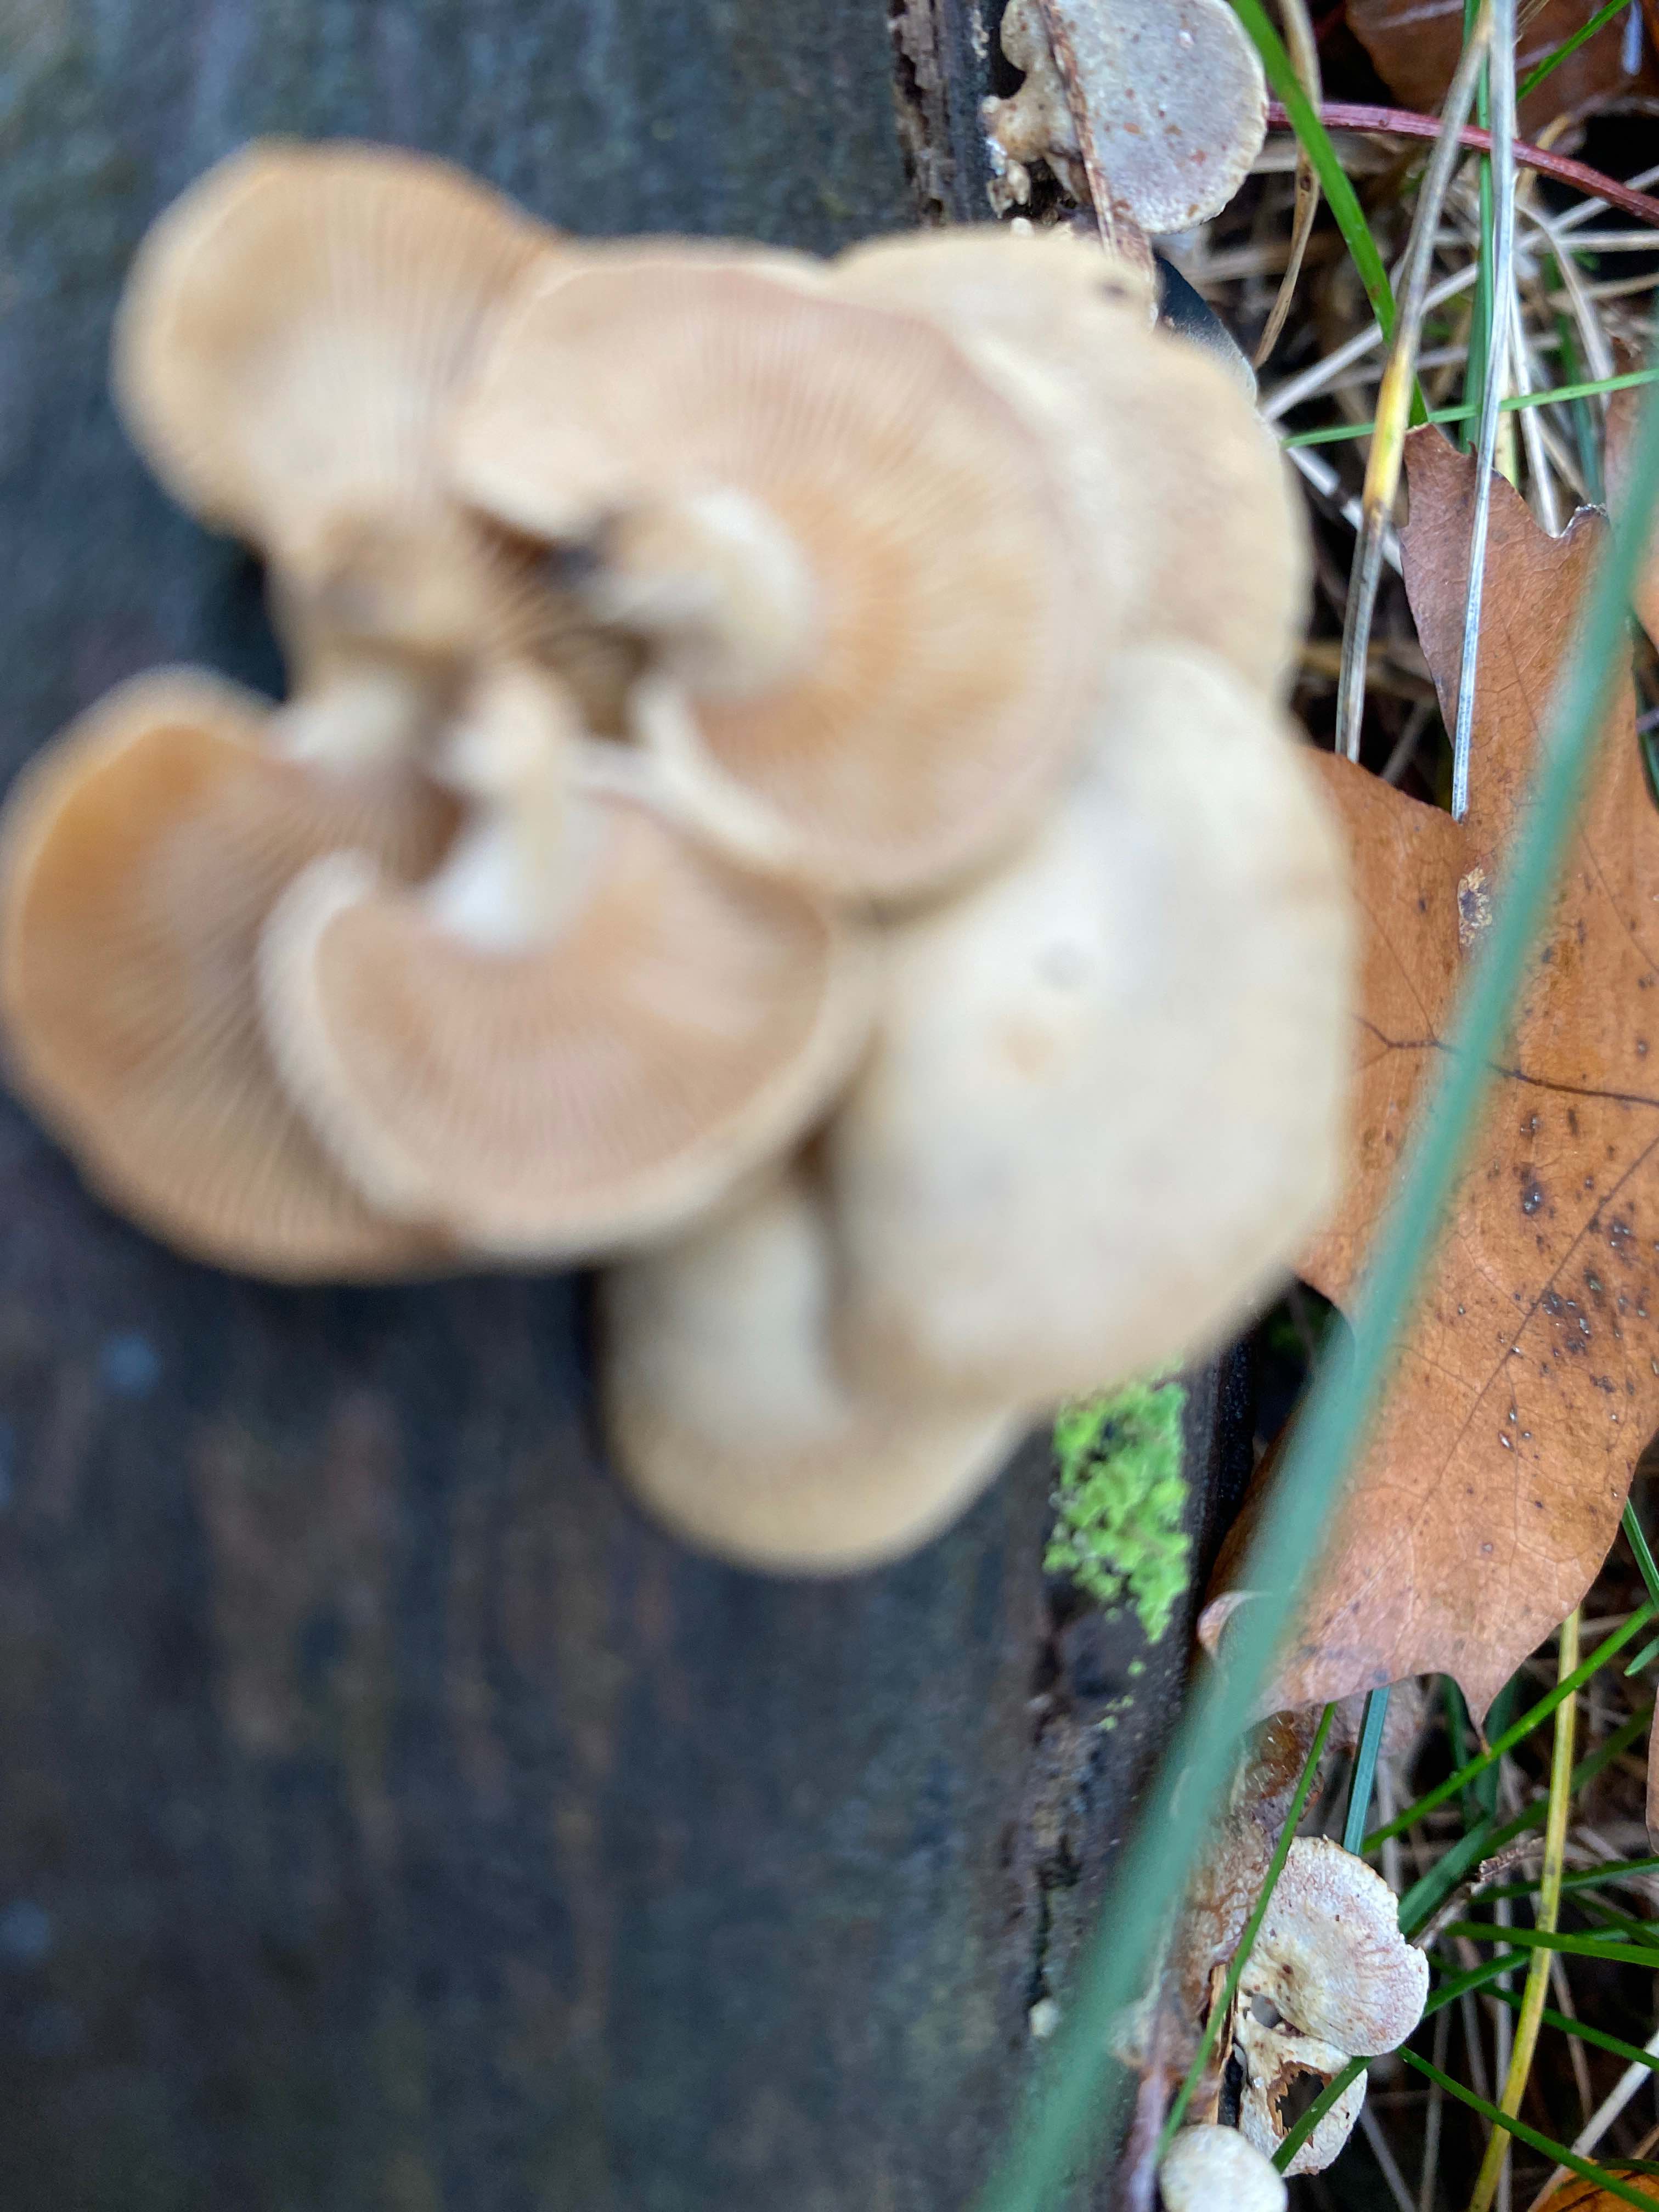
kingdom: Fungi
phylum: Basidiomycota
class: Agaricomycetes
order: Agaricales
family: Mycenaceae
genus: Panellus
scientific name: Panellus stipticus
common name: kliddet epaulethat
